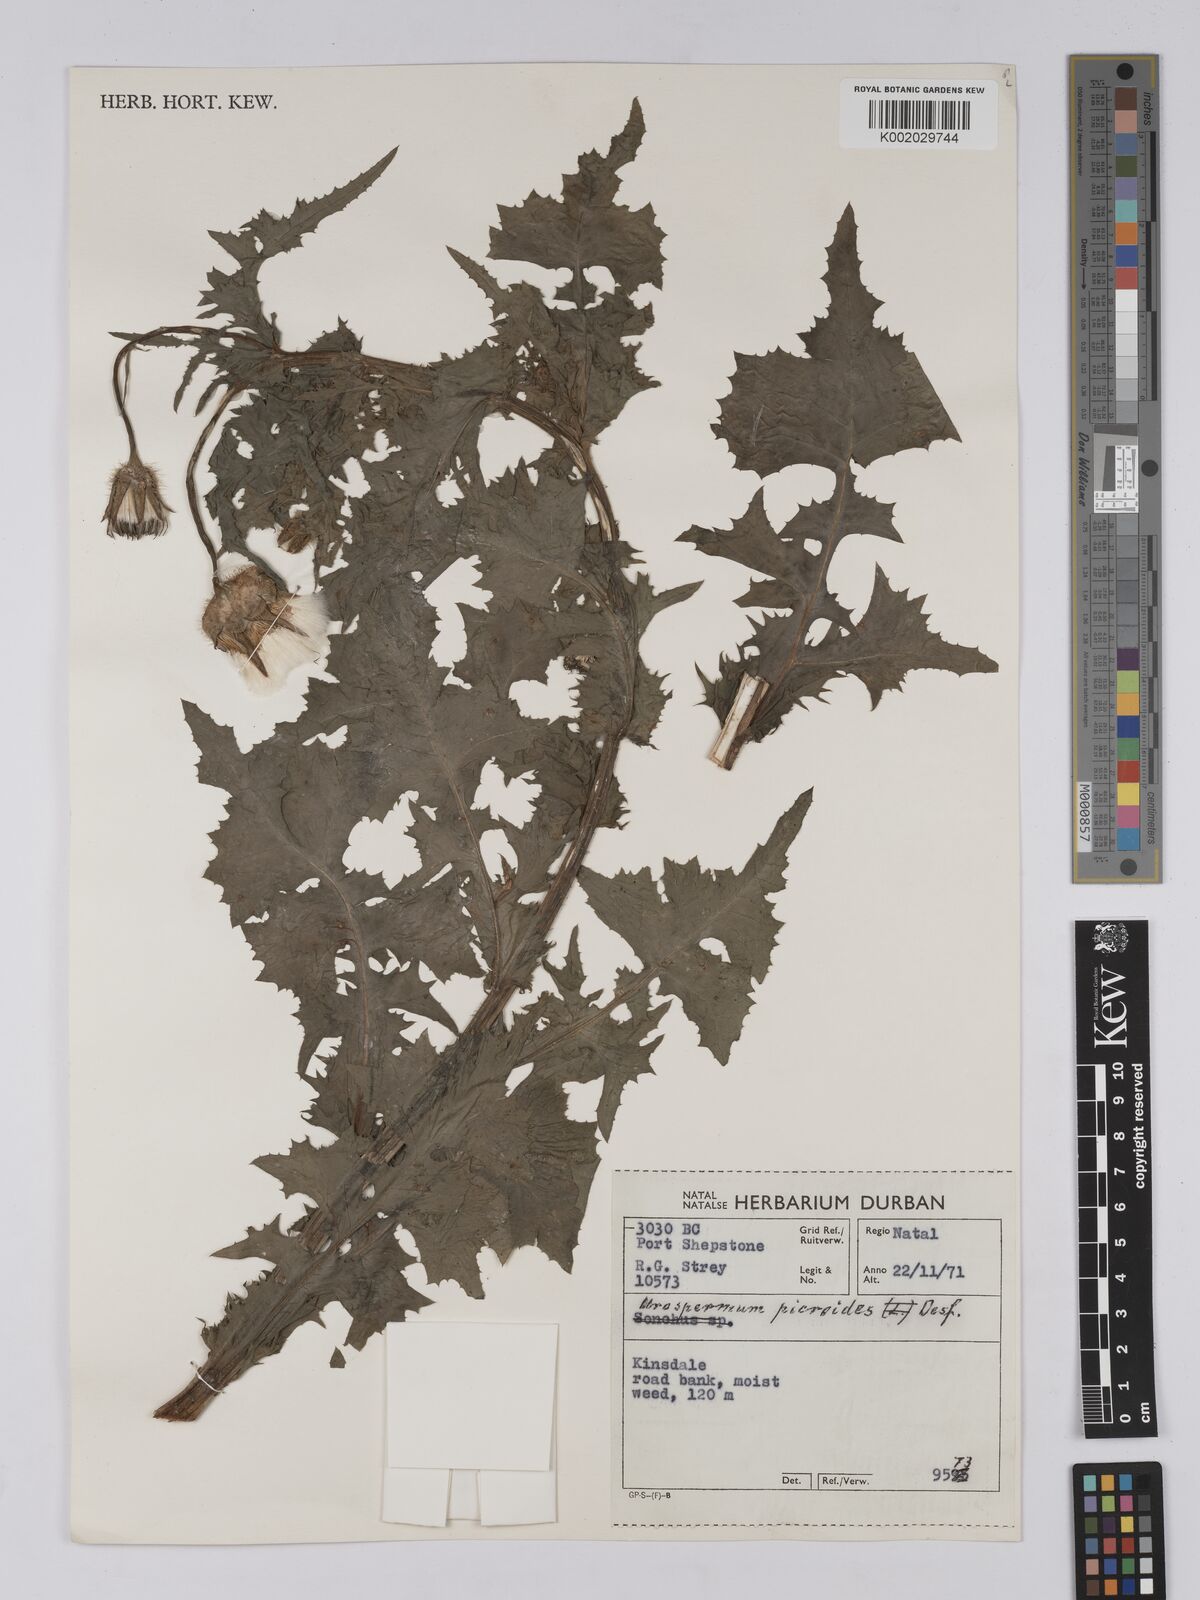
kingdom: Plantae
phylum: Tracheophyta
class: Magnoliopsida
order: Asterales
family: Asteraceae
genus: Urospermum
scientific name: Urospermum picroides
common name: False hawkbit
